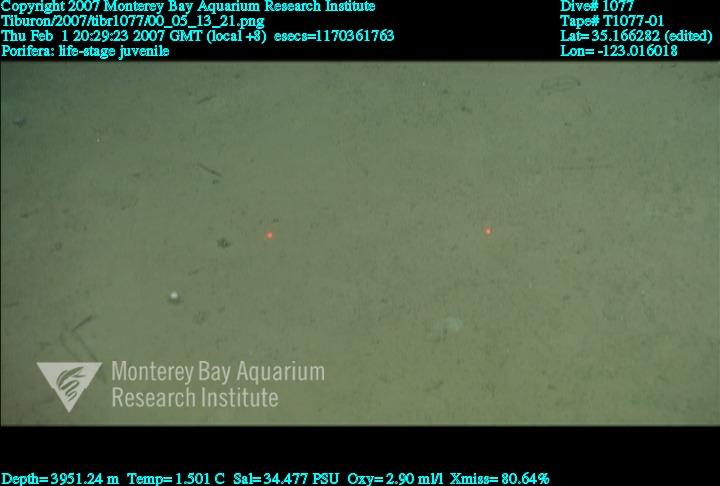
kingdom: Animalia
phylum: Porifera
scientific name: Porifera
